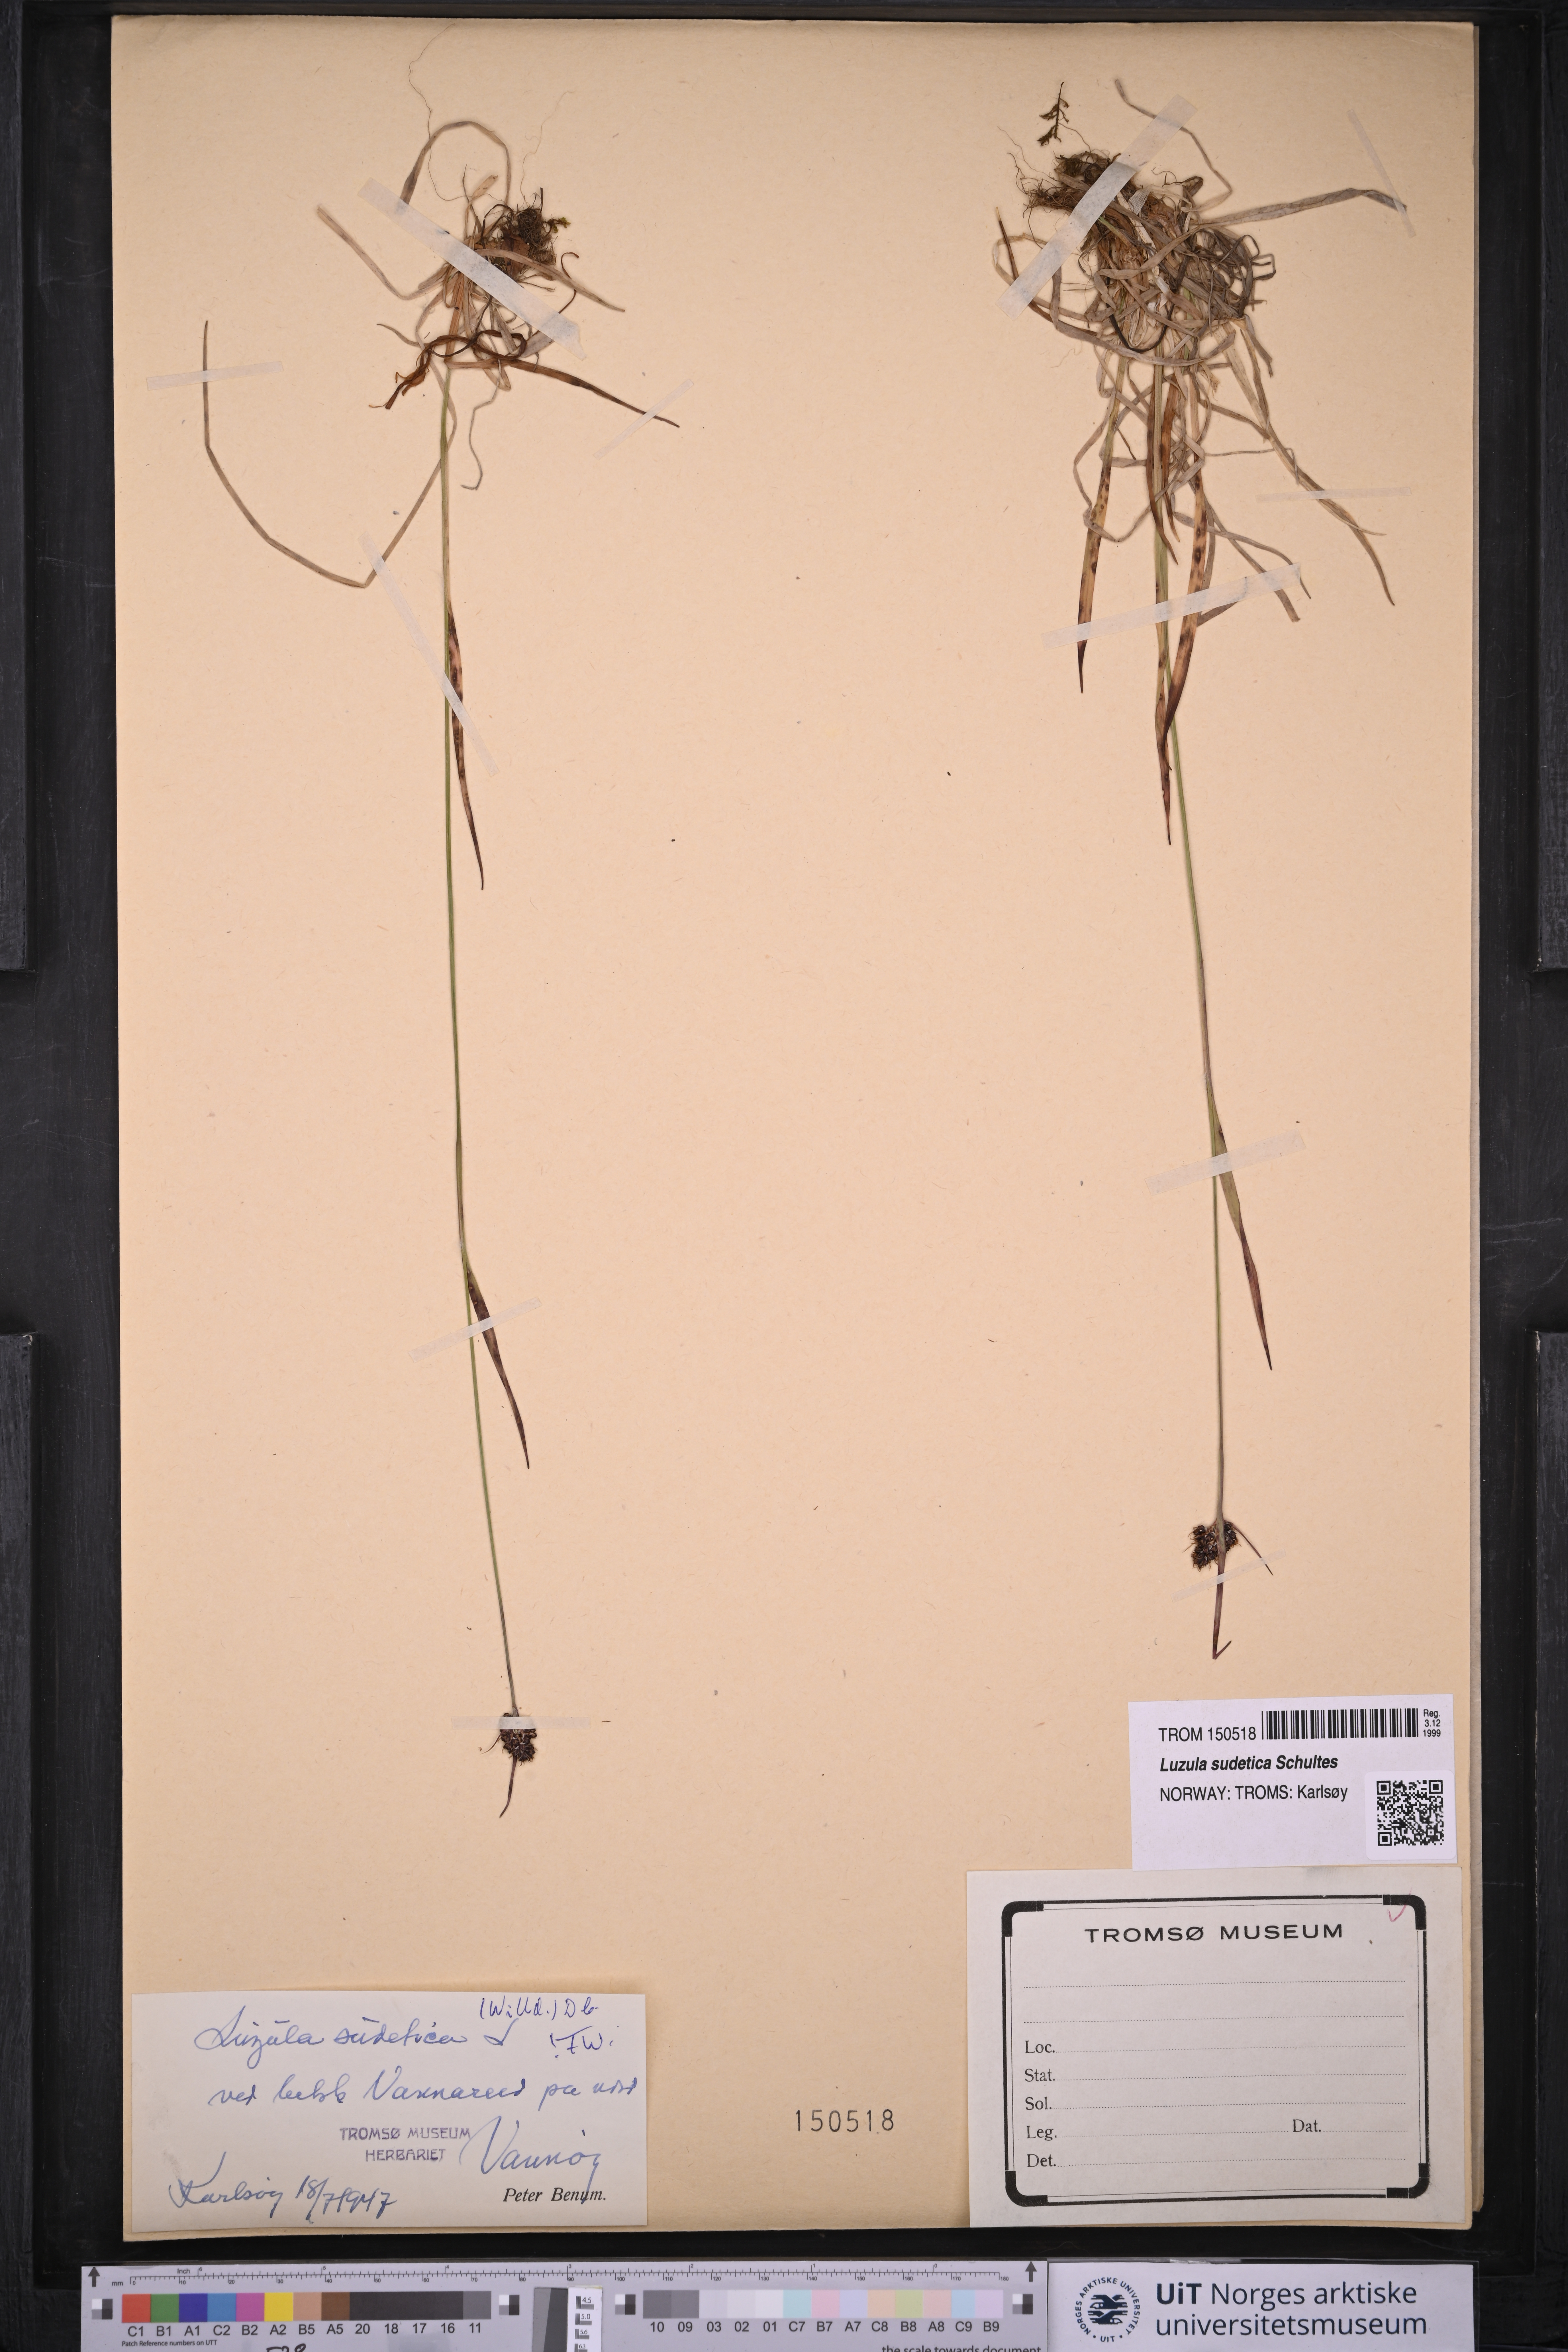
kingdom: Plantae
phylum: Tracheophyta
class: Liliopsida
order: Poales
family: Juncaceae
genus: Luzula
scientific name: Luzula sudetica
